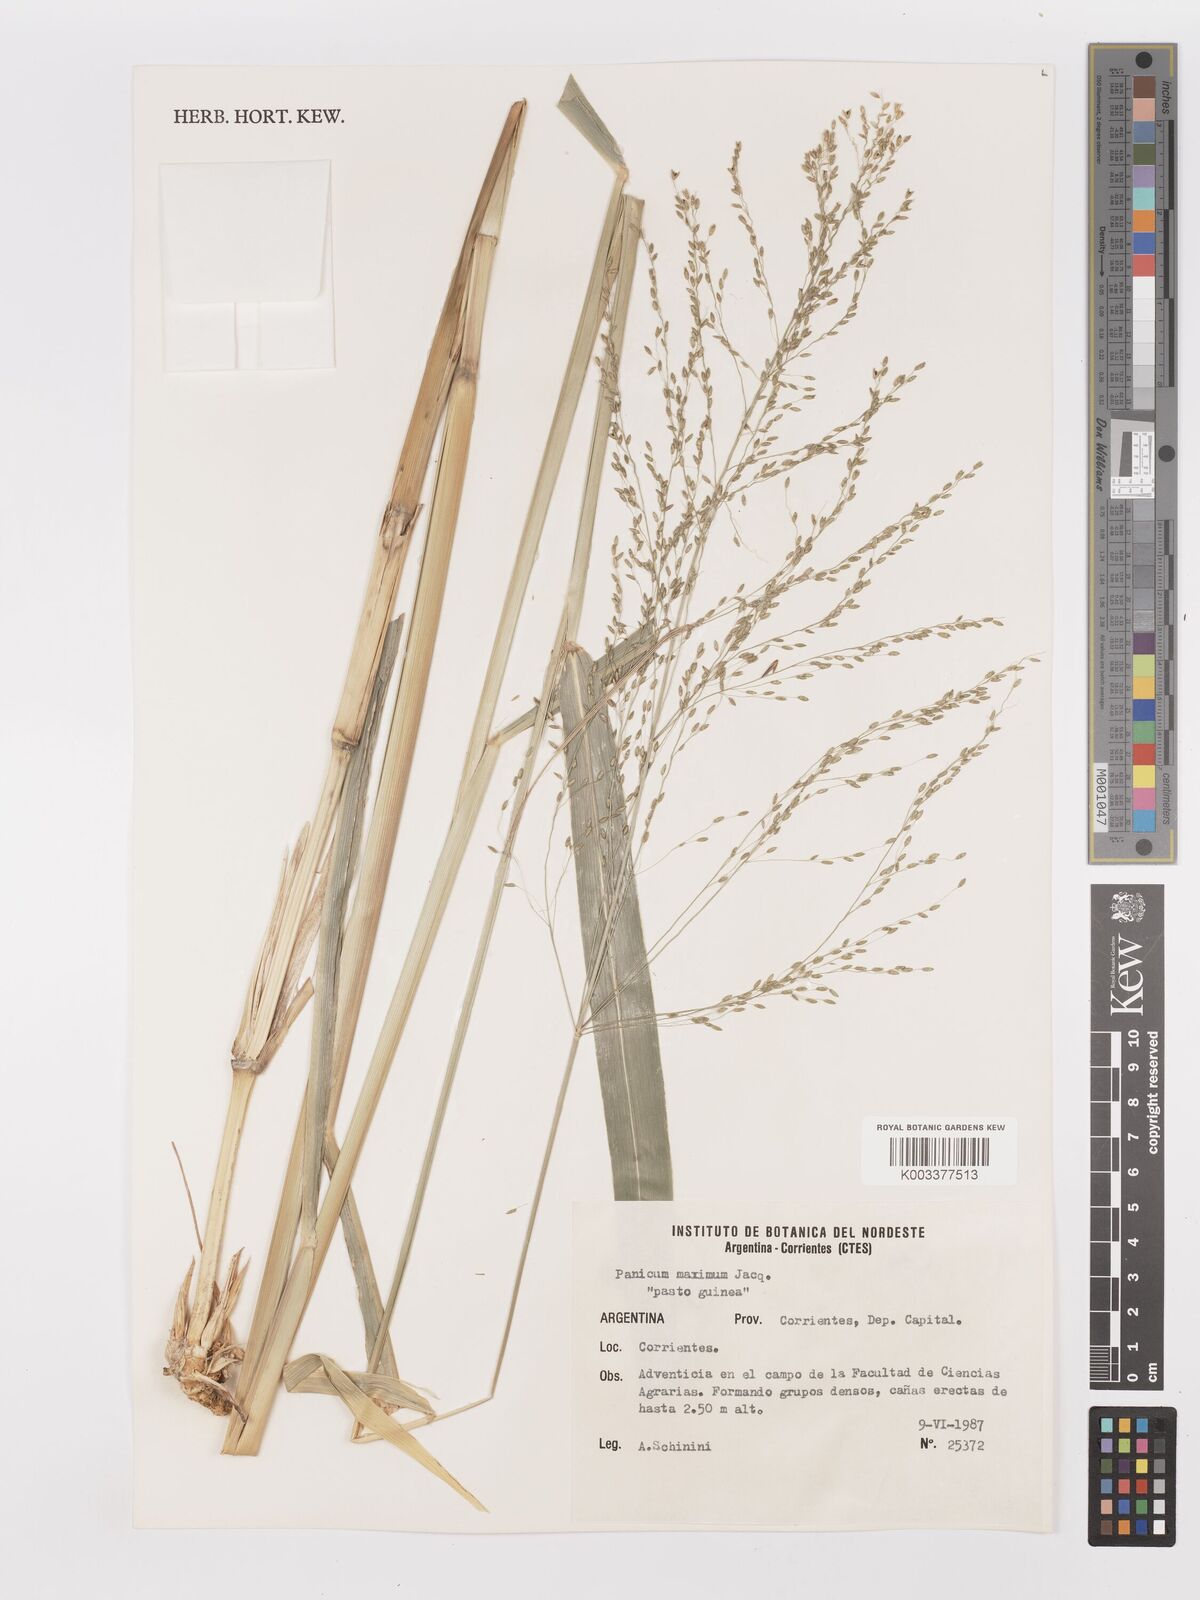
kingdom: Plantae
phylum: Tracheophyta
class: Liliopsida
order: Poales
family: Poaceae
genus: Megathyrsus
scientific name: Megathyrsus maximus
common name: Guineagrass
